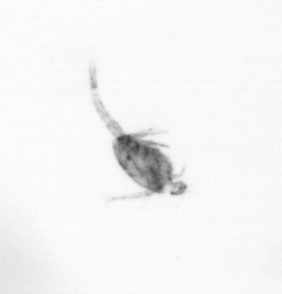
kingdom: Animalia
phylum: Arthropoda
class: Copepoda
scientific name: Copepoda
